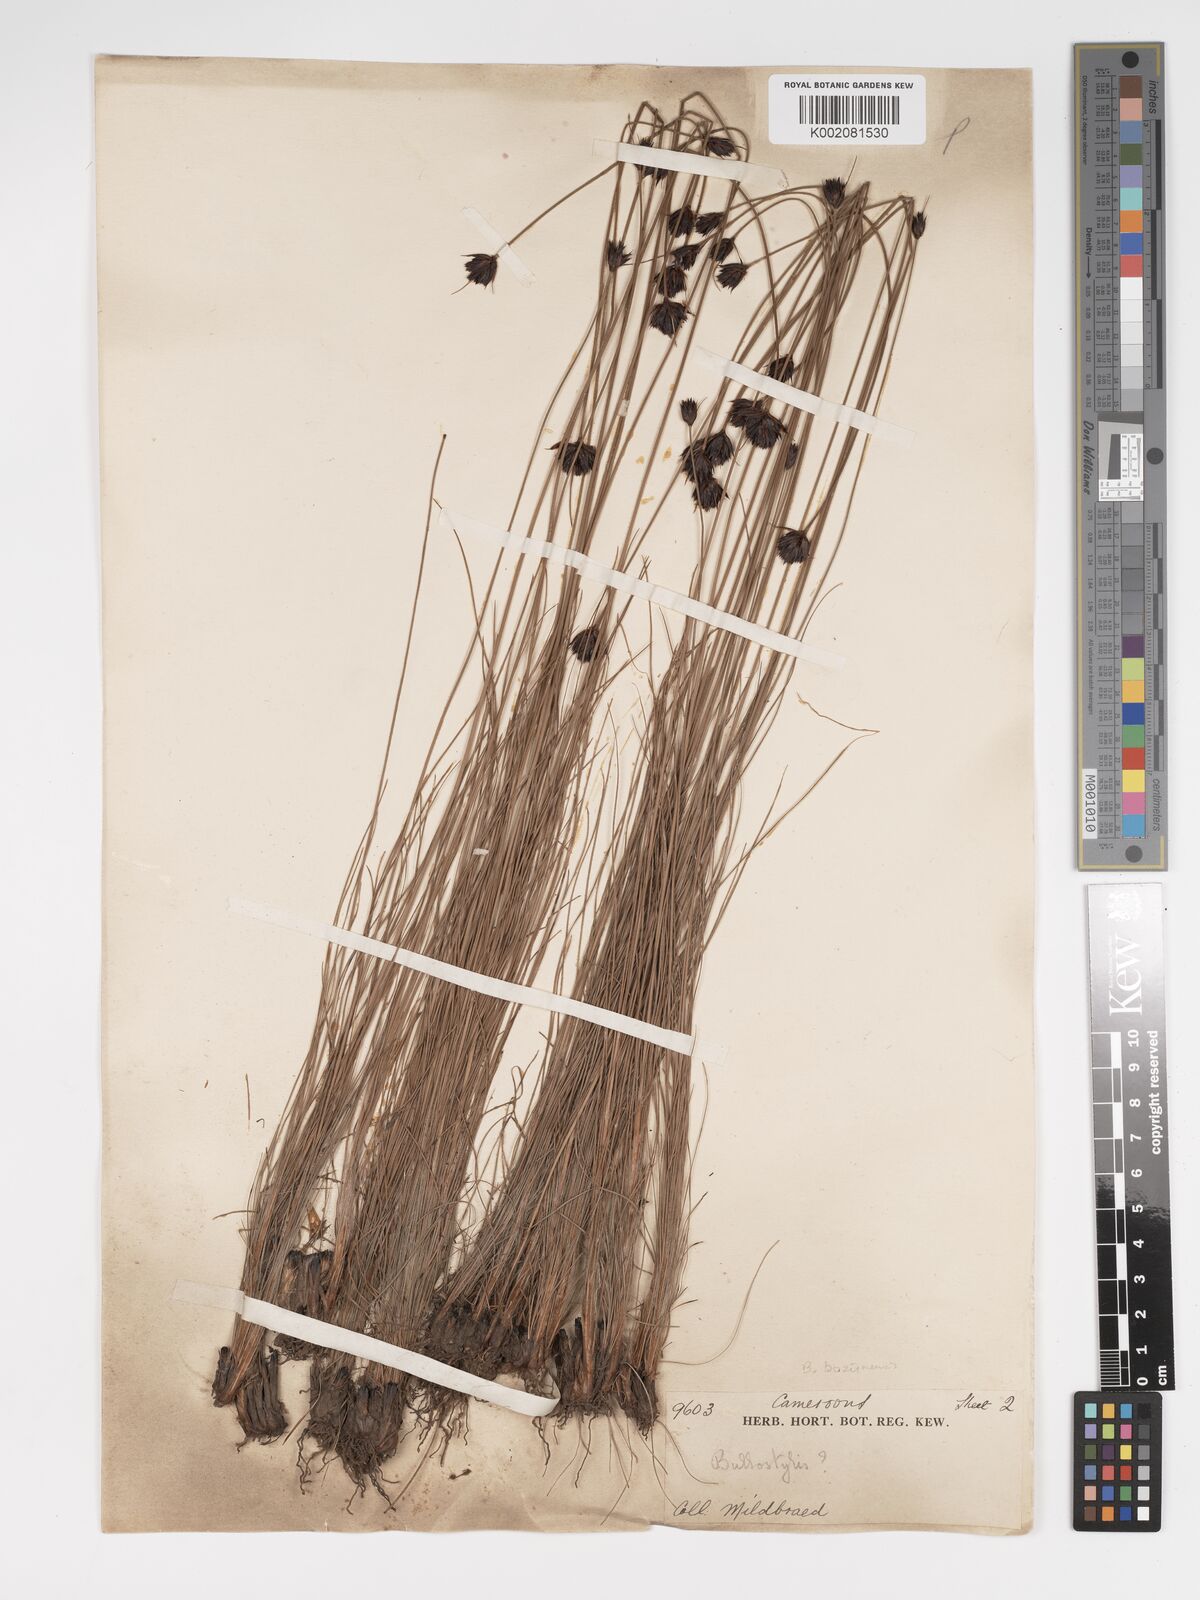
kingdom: Plantae
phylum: Tracheophyta
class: Liliopsida
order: Poales
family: Cyperaceae
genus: Bulbostylis
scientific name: Bulbostylis schoenoides
